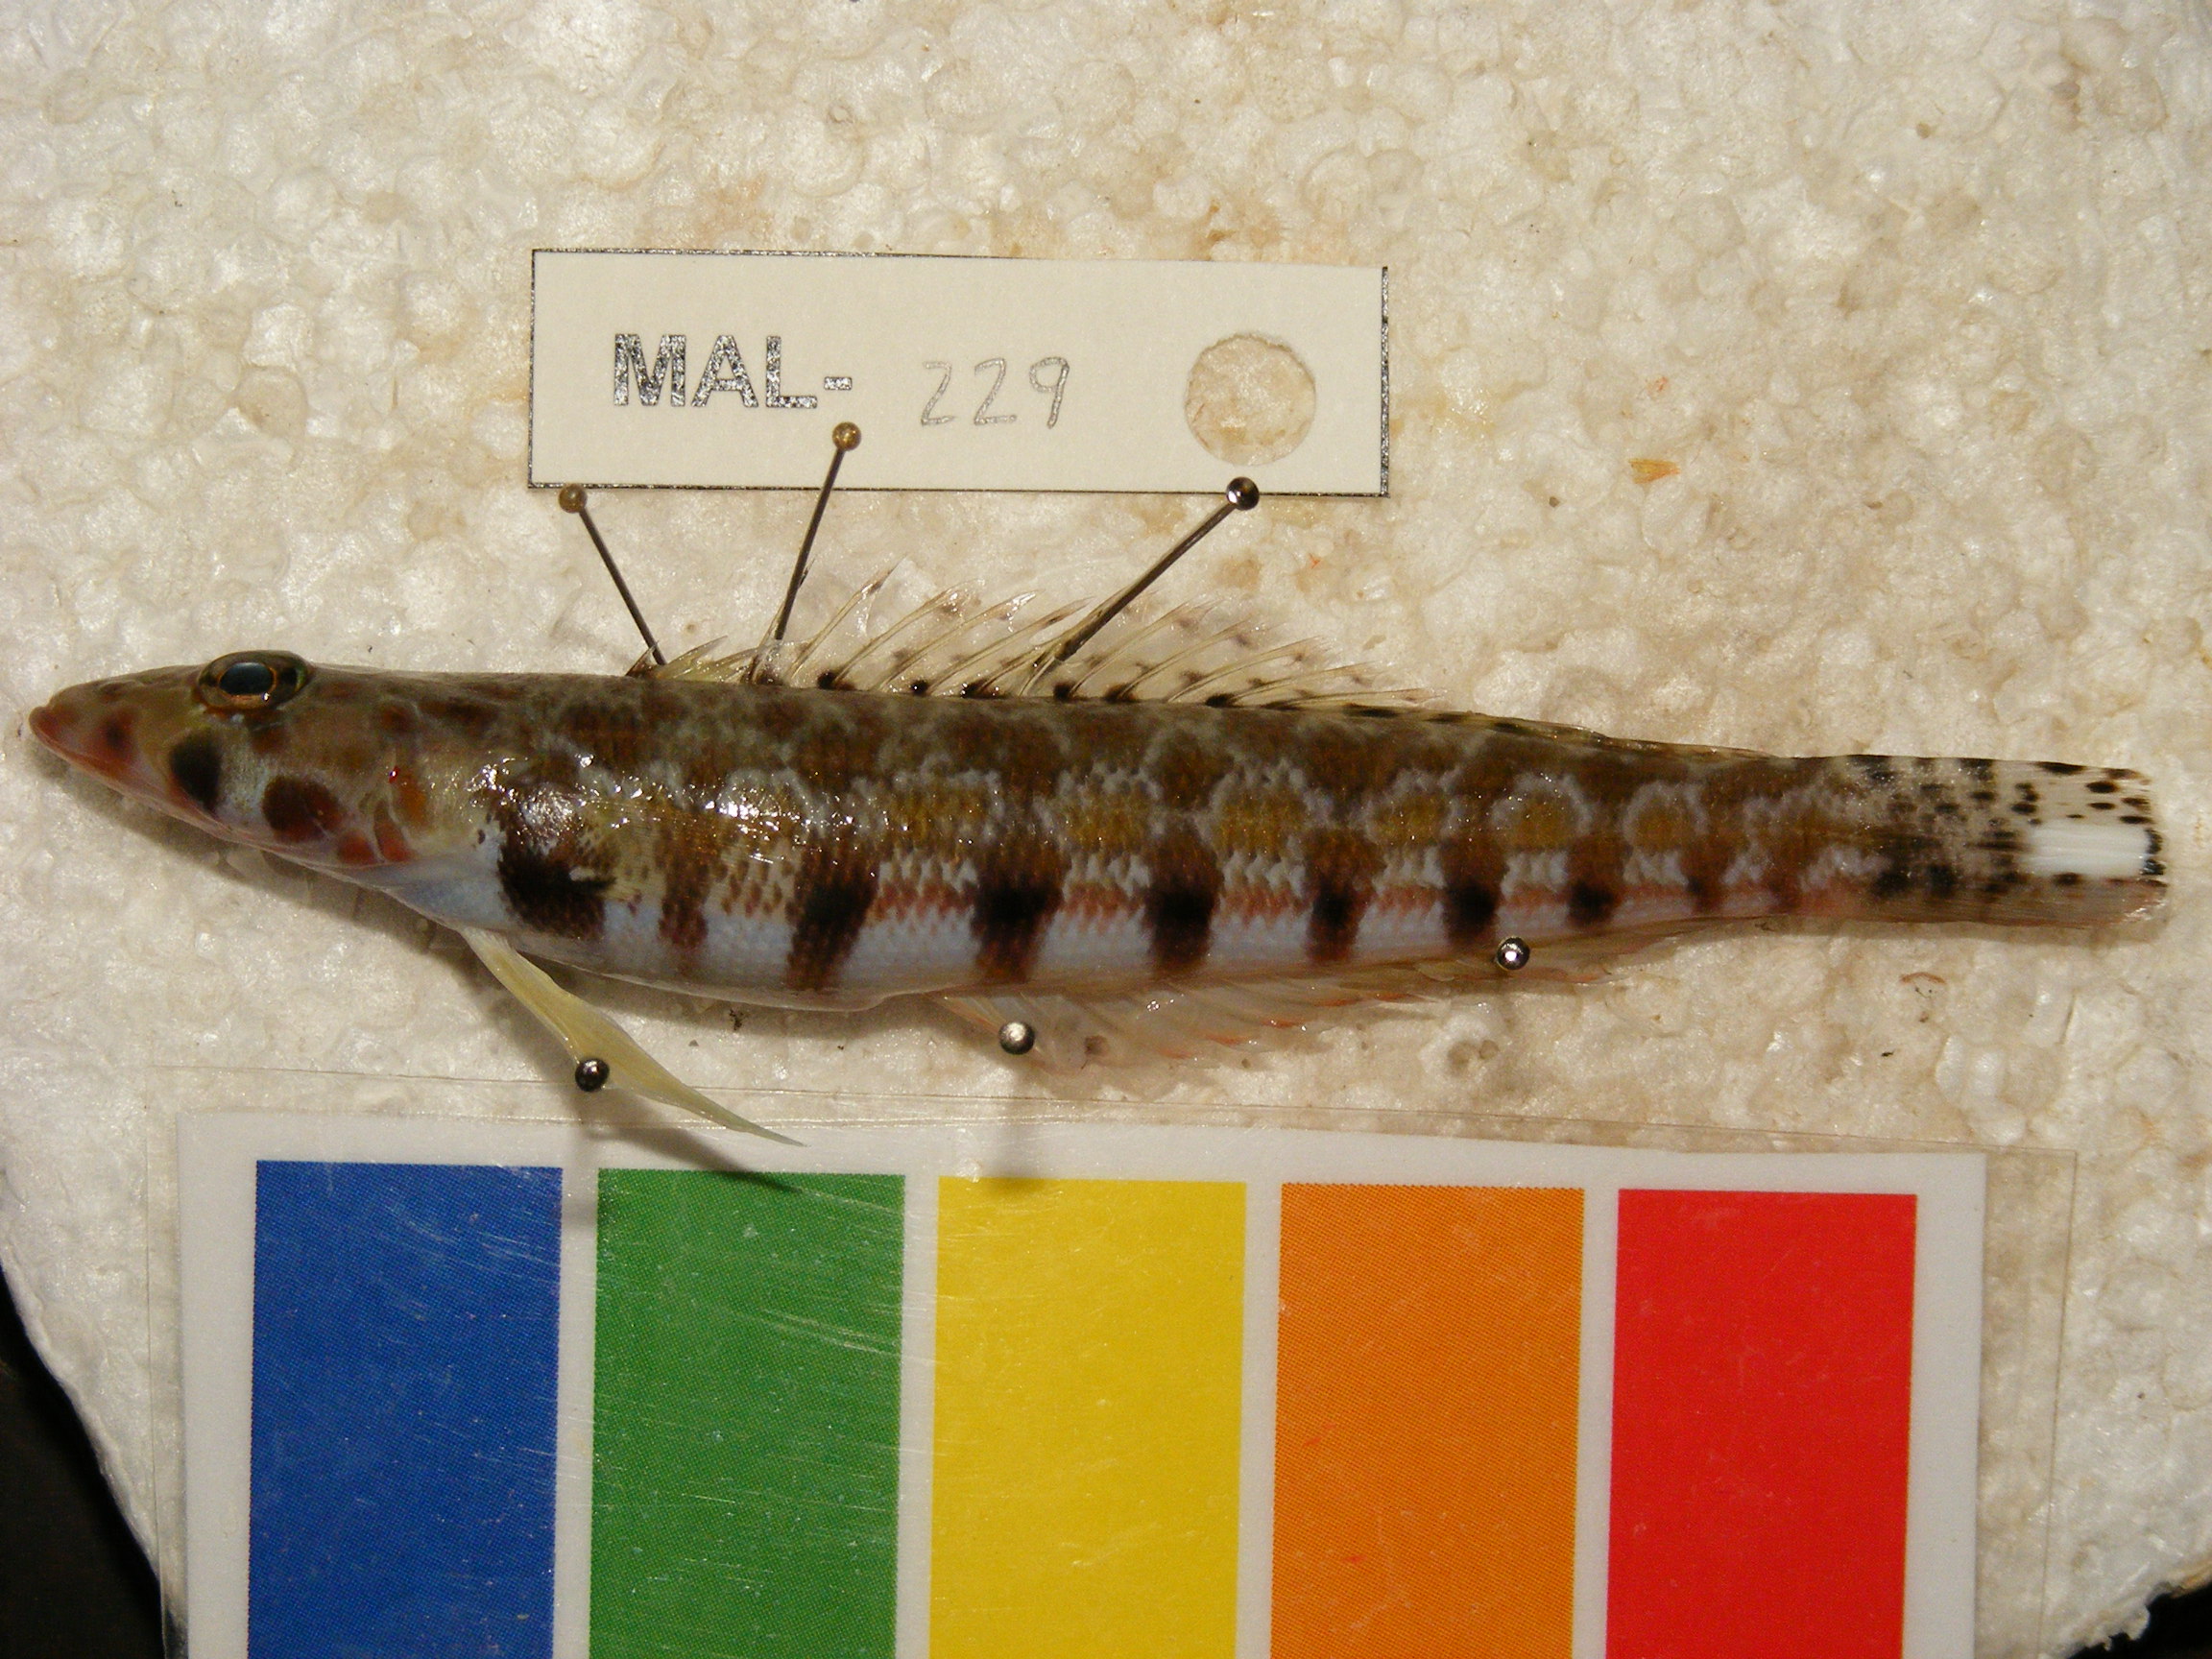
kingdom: Animalia
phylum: Chordata
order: Perciformes
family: Pinguipedidae
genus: Parapercis
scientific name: Parapercis xanthozona
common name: Yellowbar sandperch
